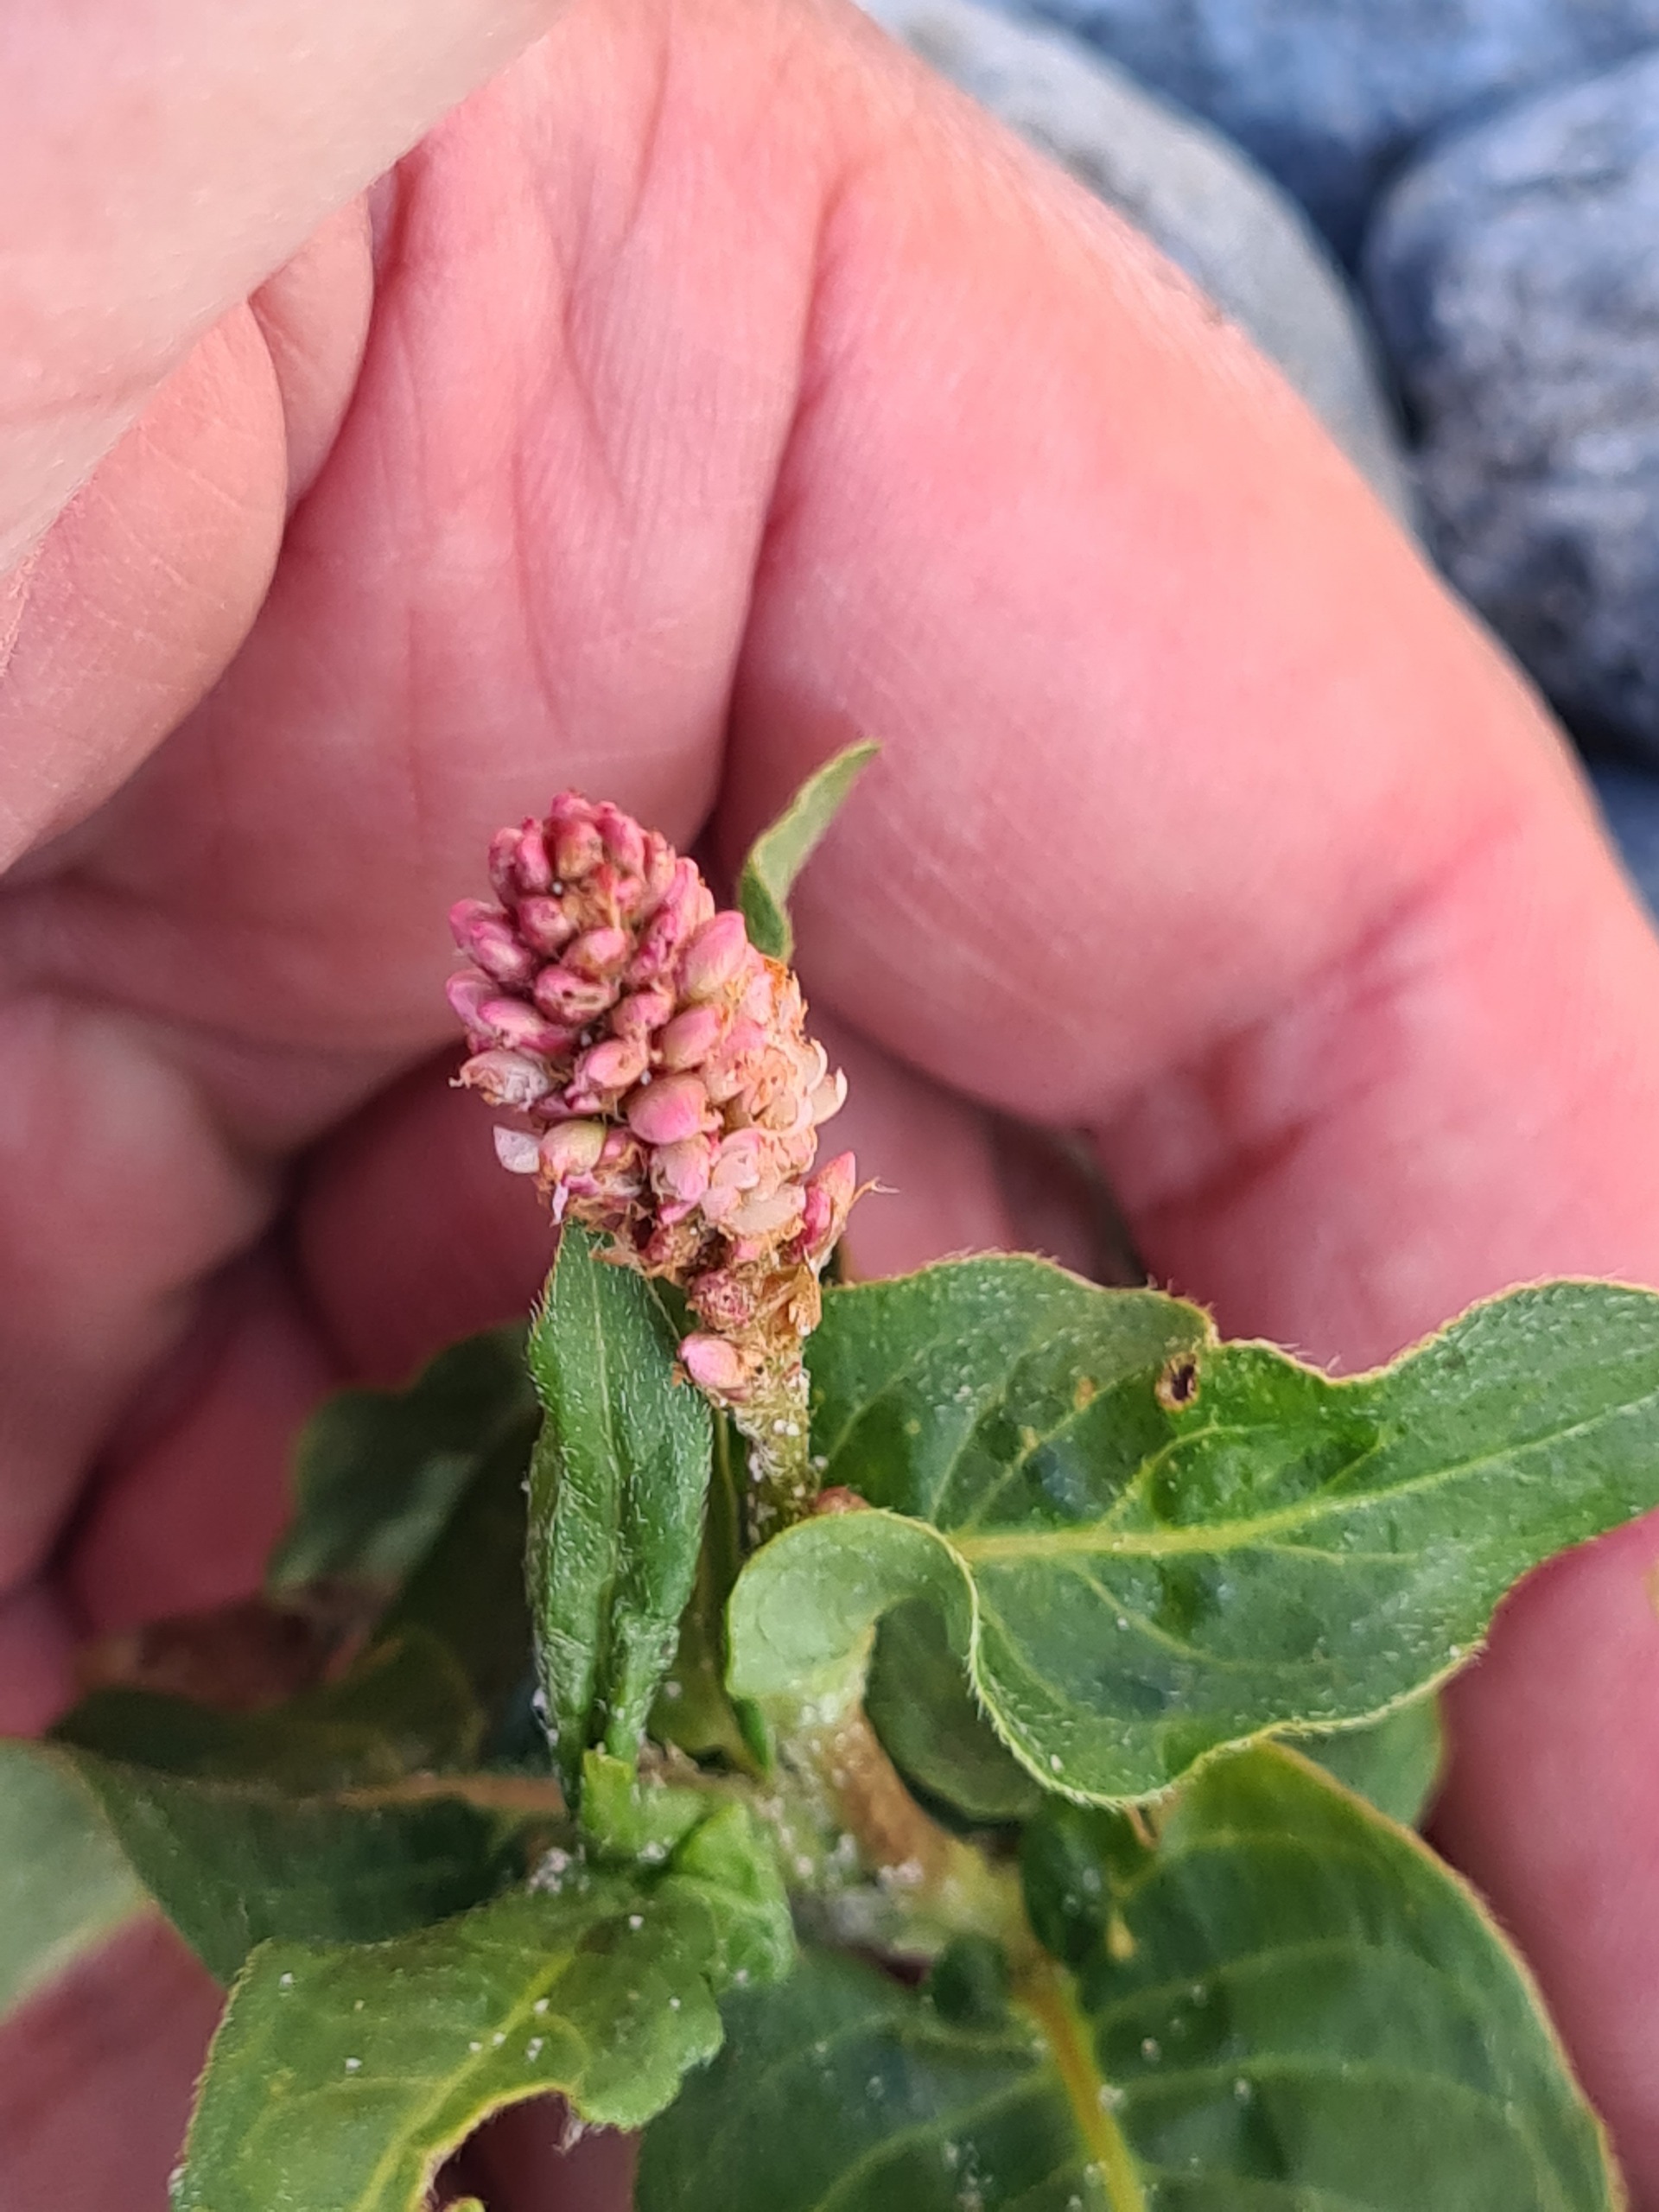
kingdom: Plantae
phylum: Tracheophyta
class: Magnoliopsida
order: Caryophyllales
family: Polygonaceae
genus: Persicaria
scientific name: Persicaria amphibia
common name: Vand-pileurt
